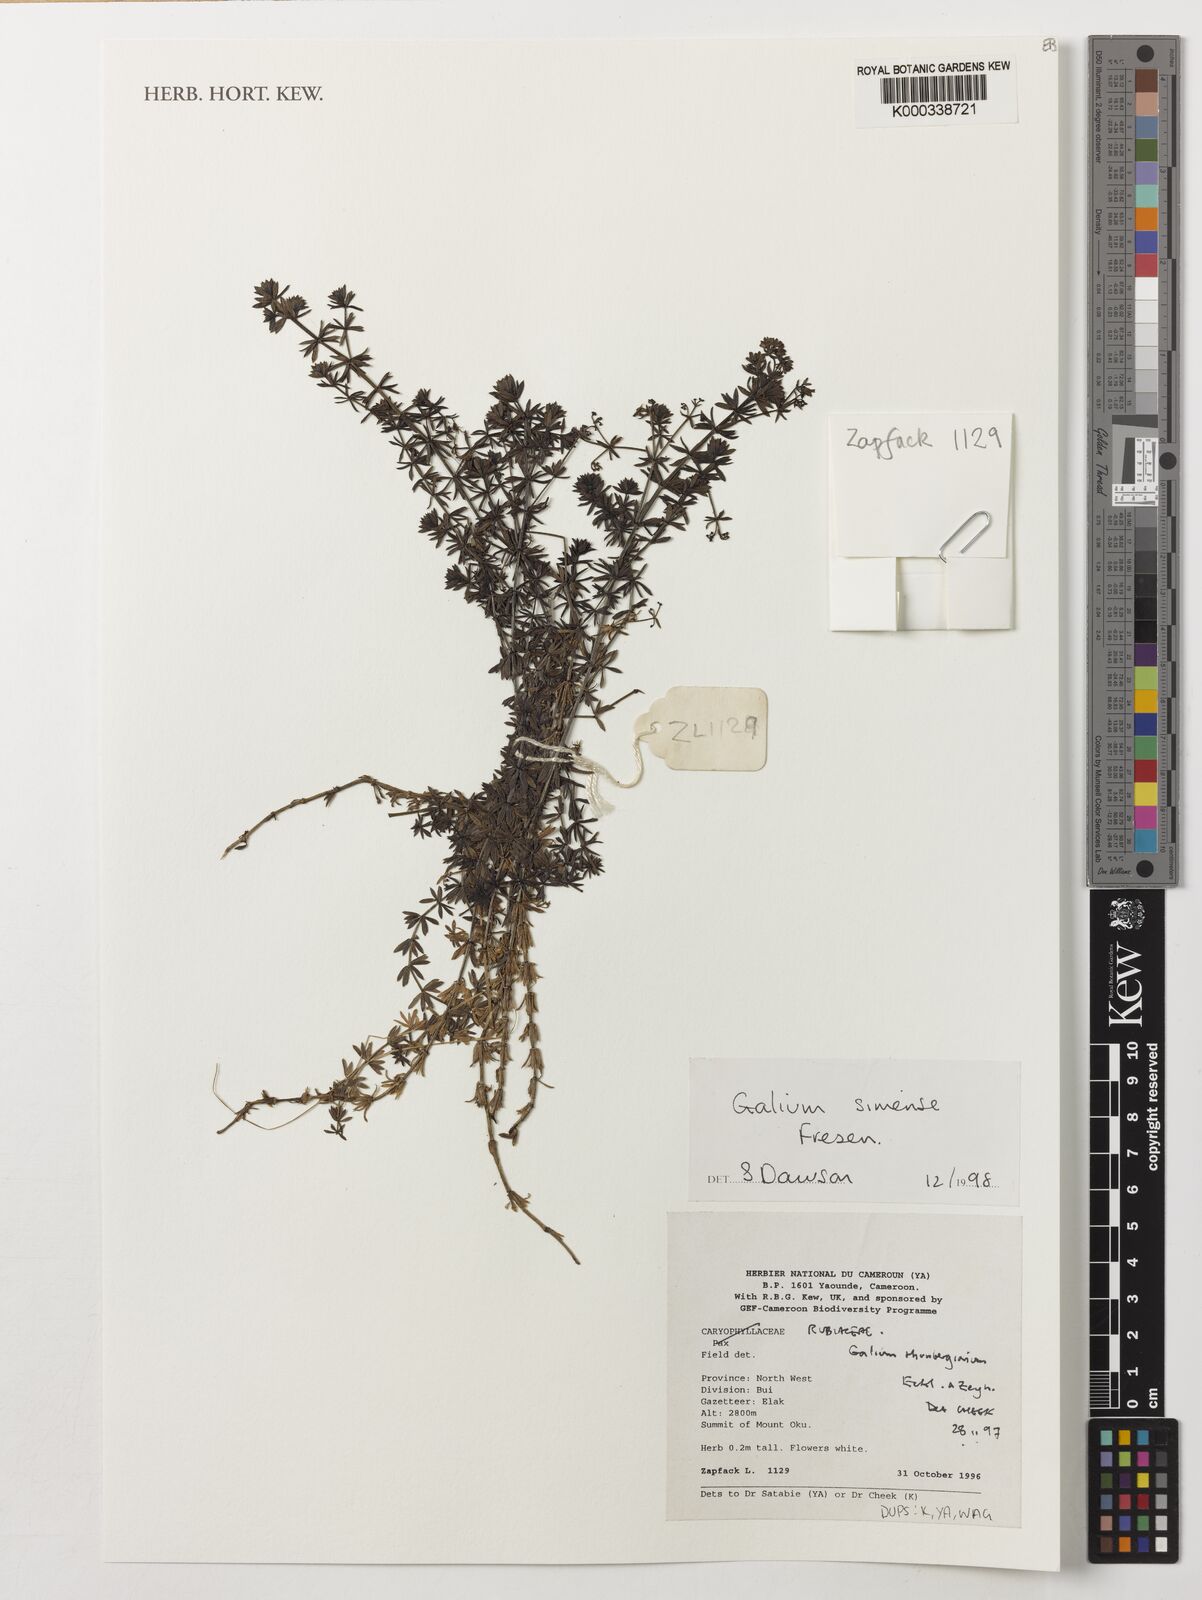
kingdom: Plantae
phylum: Tracheophyta
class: Magnoliopsida
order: Gentianales
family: Rubiaceae
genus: Galium
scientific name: Galium simense
